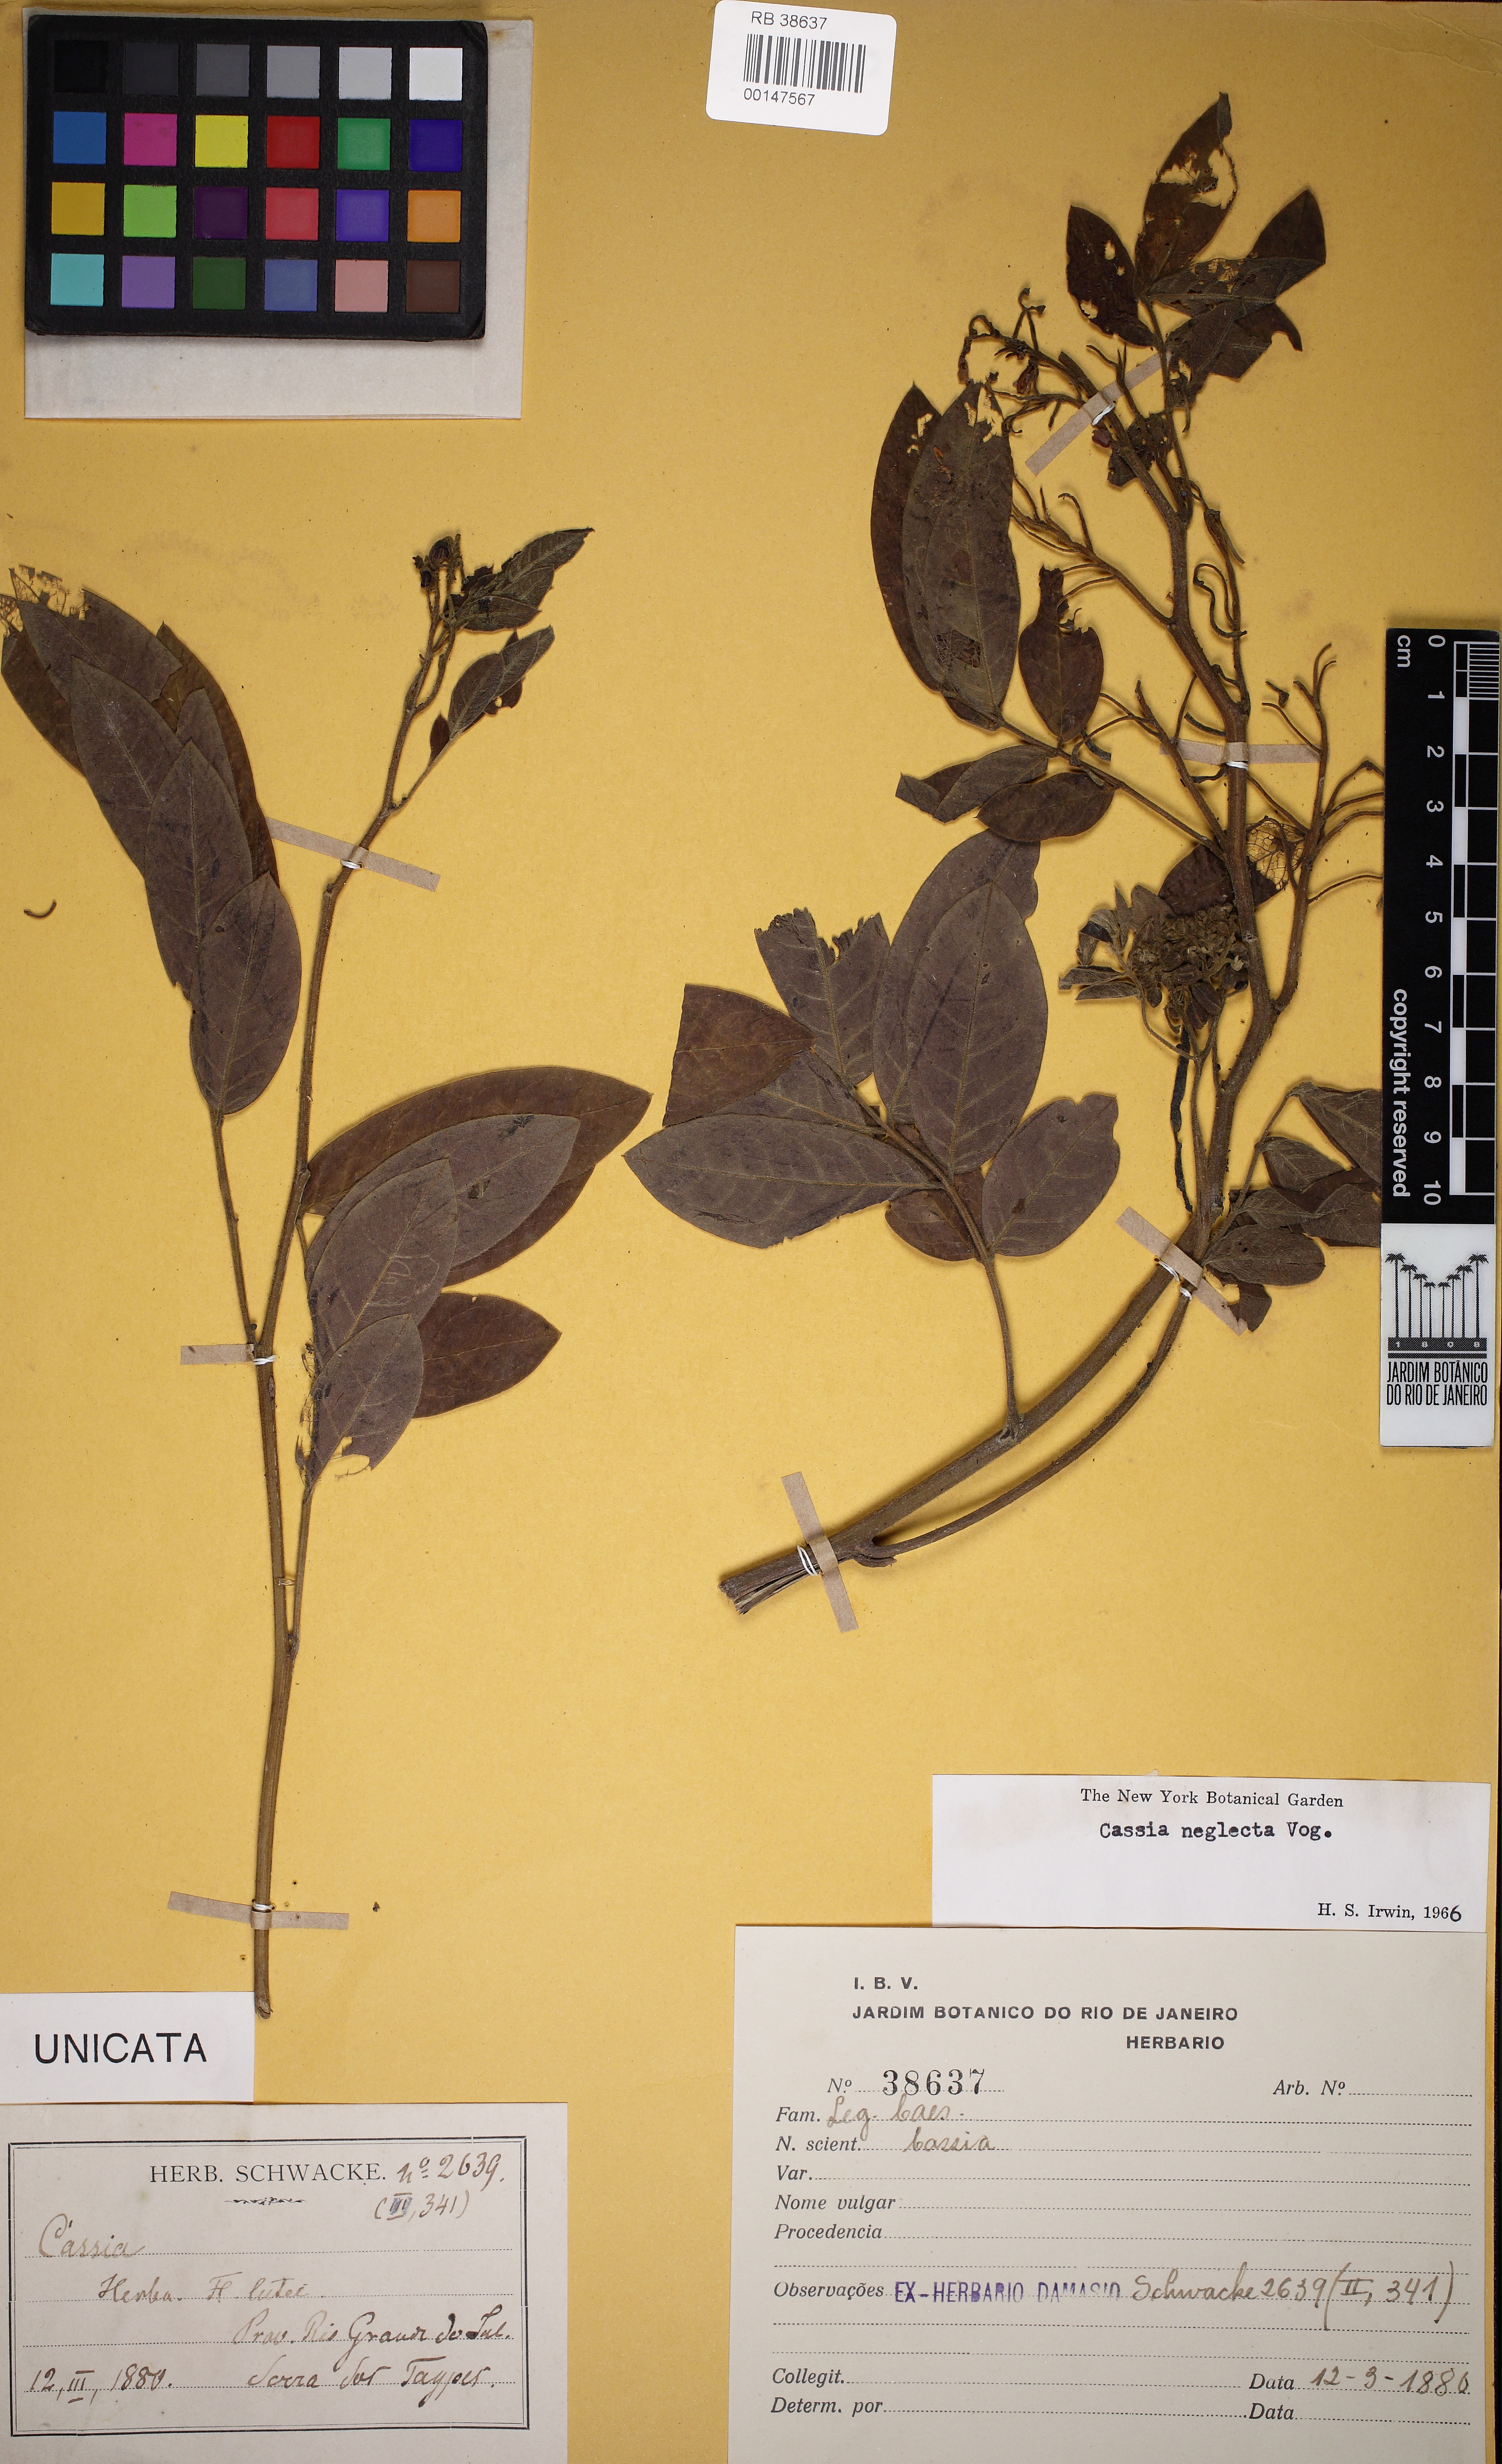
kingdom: Plantae
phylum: Tracheophyta
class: Magnoliopsida
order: Fabales
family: Fabaceae
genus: Senna
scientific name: Senna neglecta
